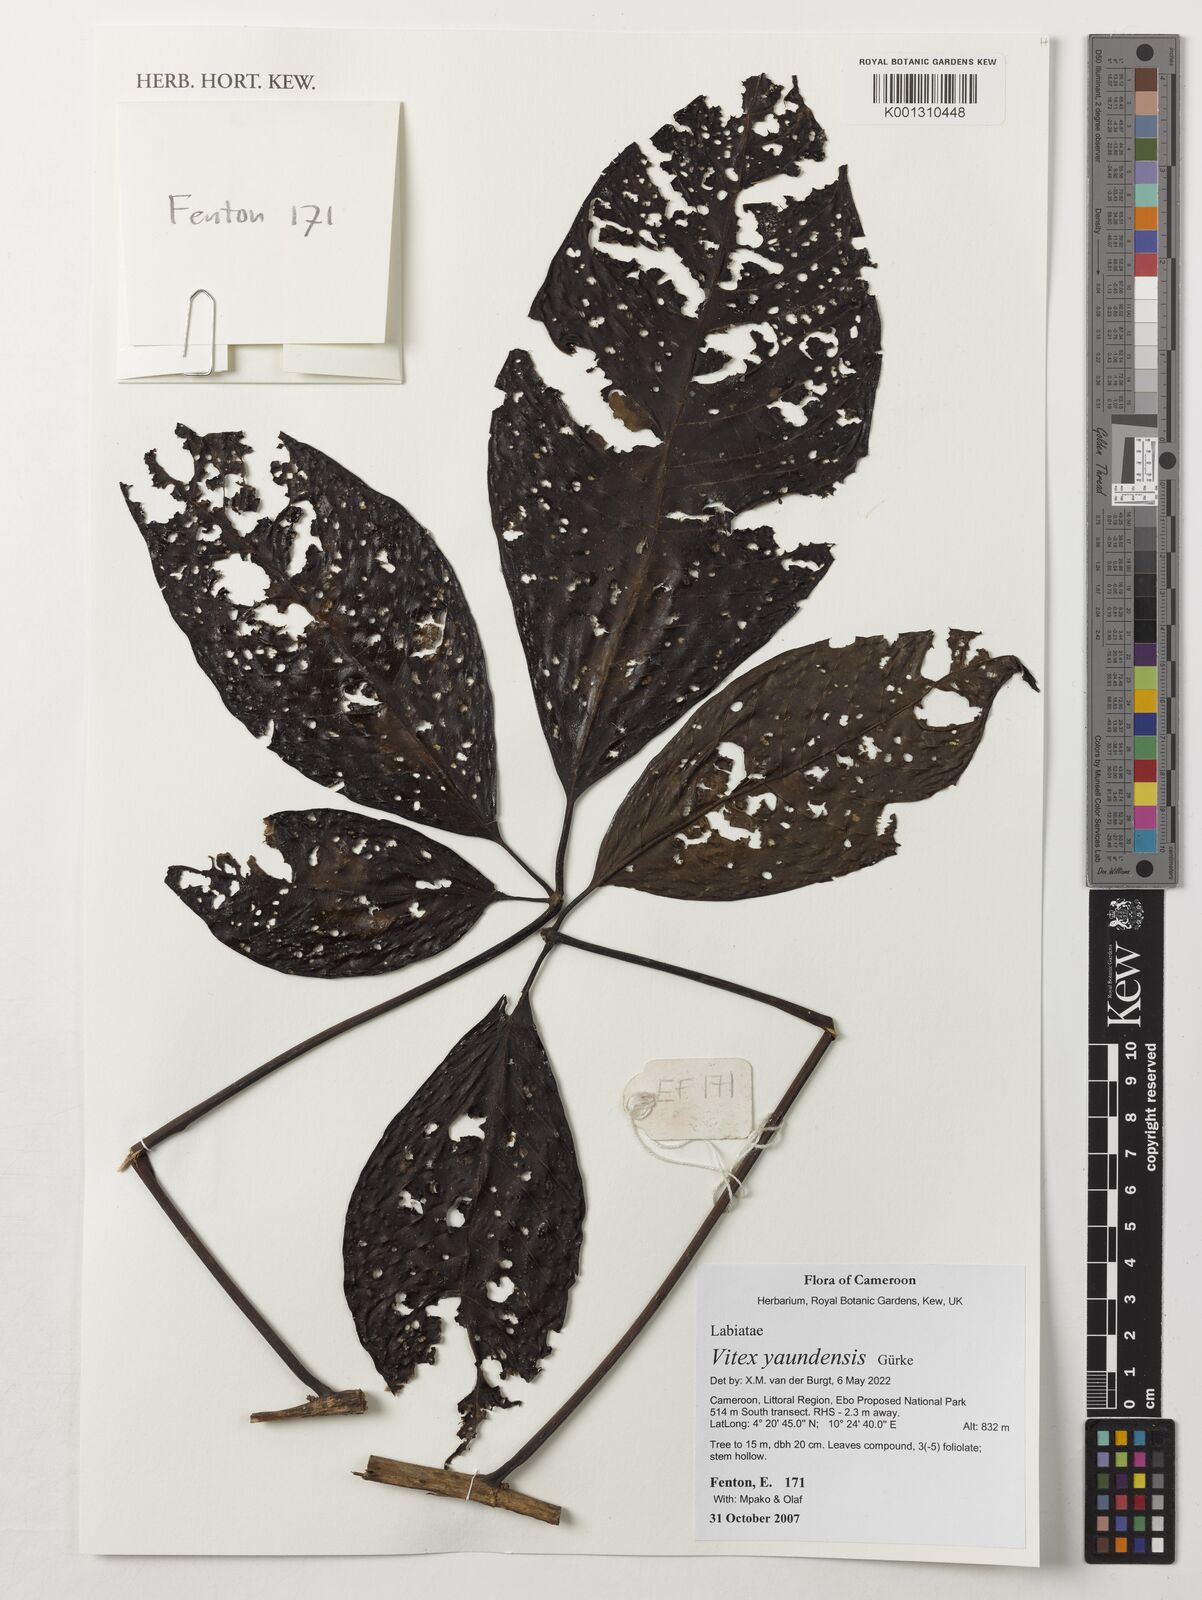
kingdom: Plantae
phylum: Tracheophyta
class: Magnoliopsida
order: Lamiales
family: Lamiaceae
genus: Vitex
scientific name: Vitex yaundensis
